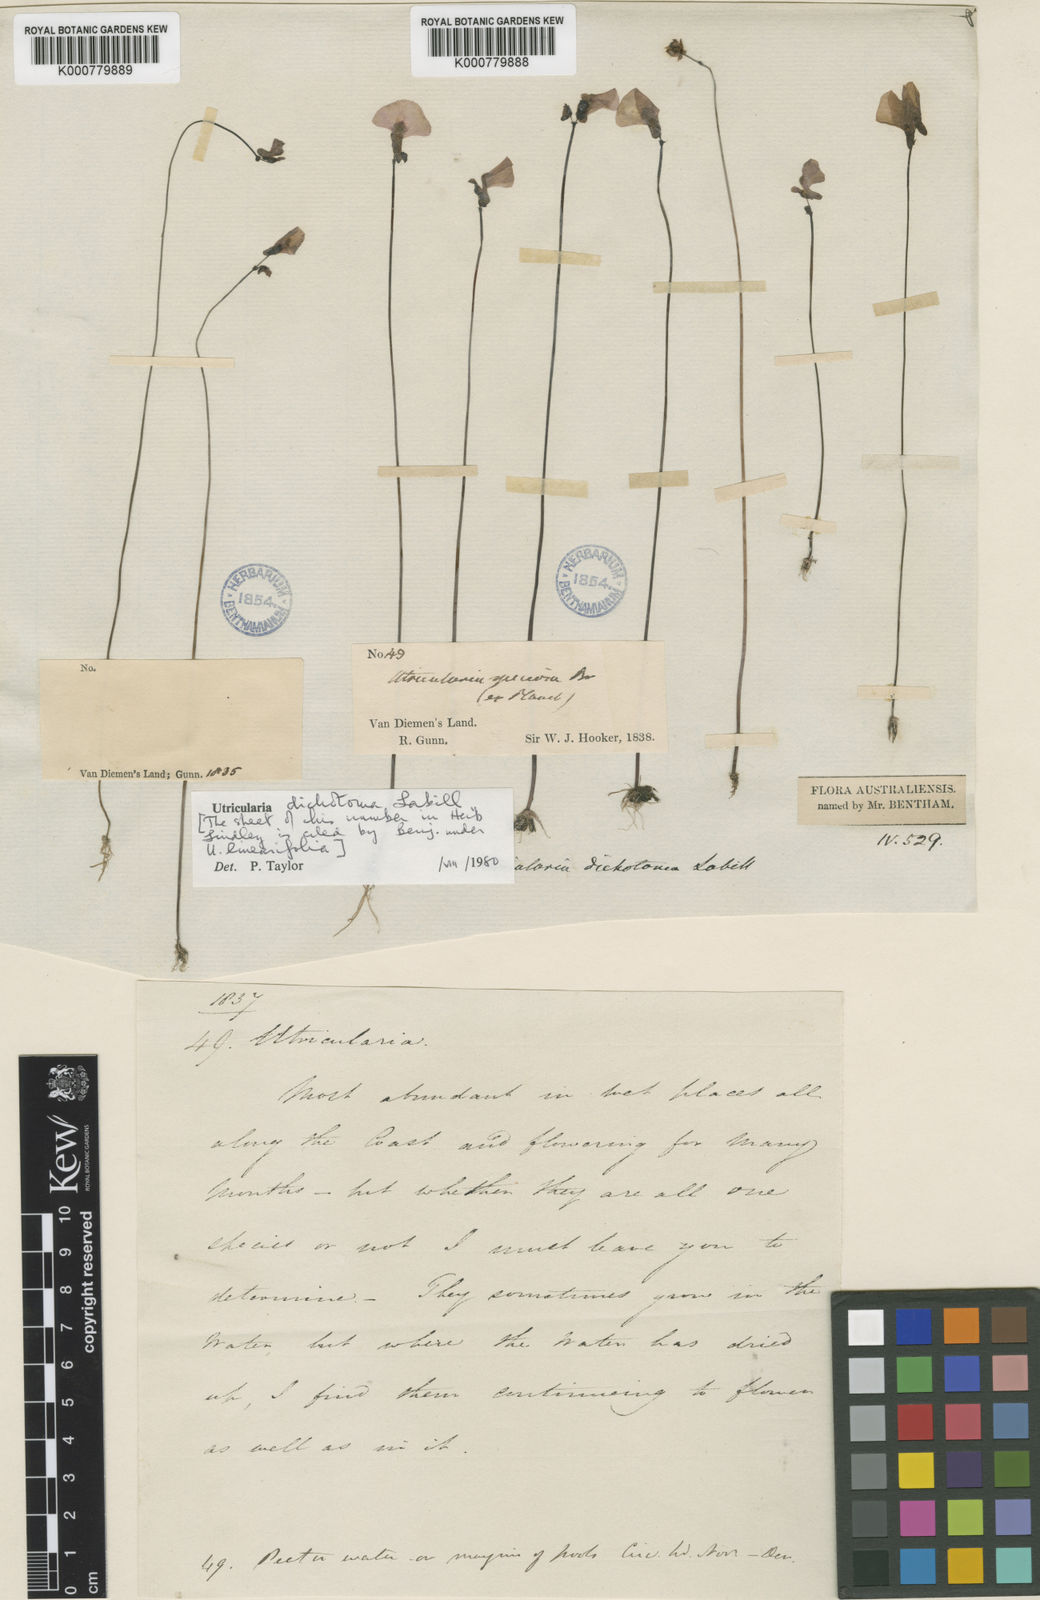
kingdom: Plantae
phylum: Tracheophyta
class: Magnoliopsida
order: Lamiales
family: Lentibulariaceae
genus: Utricularia
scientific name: Utricularia dichotoma
